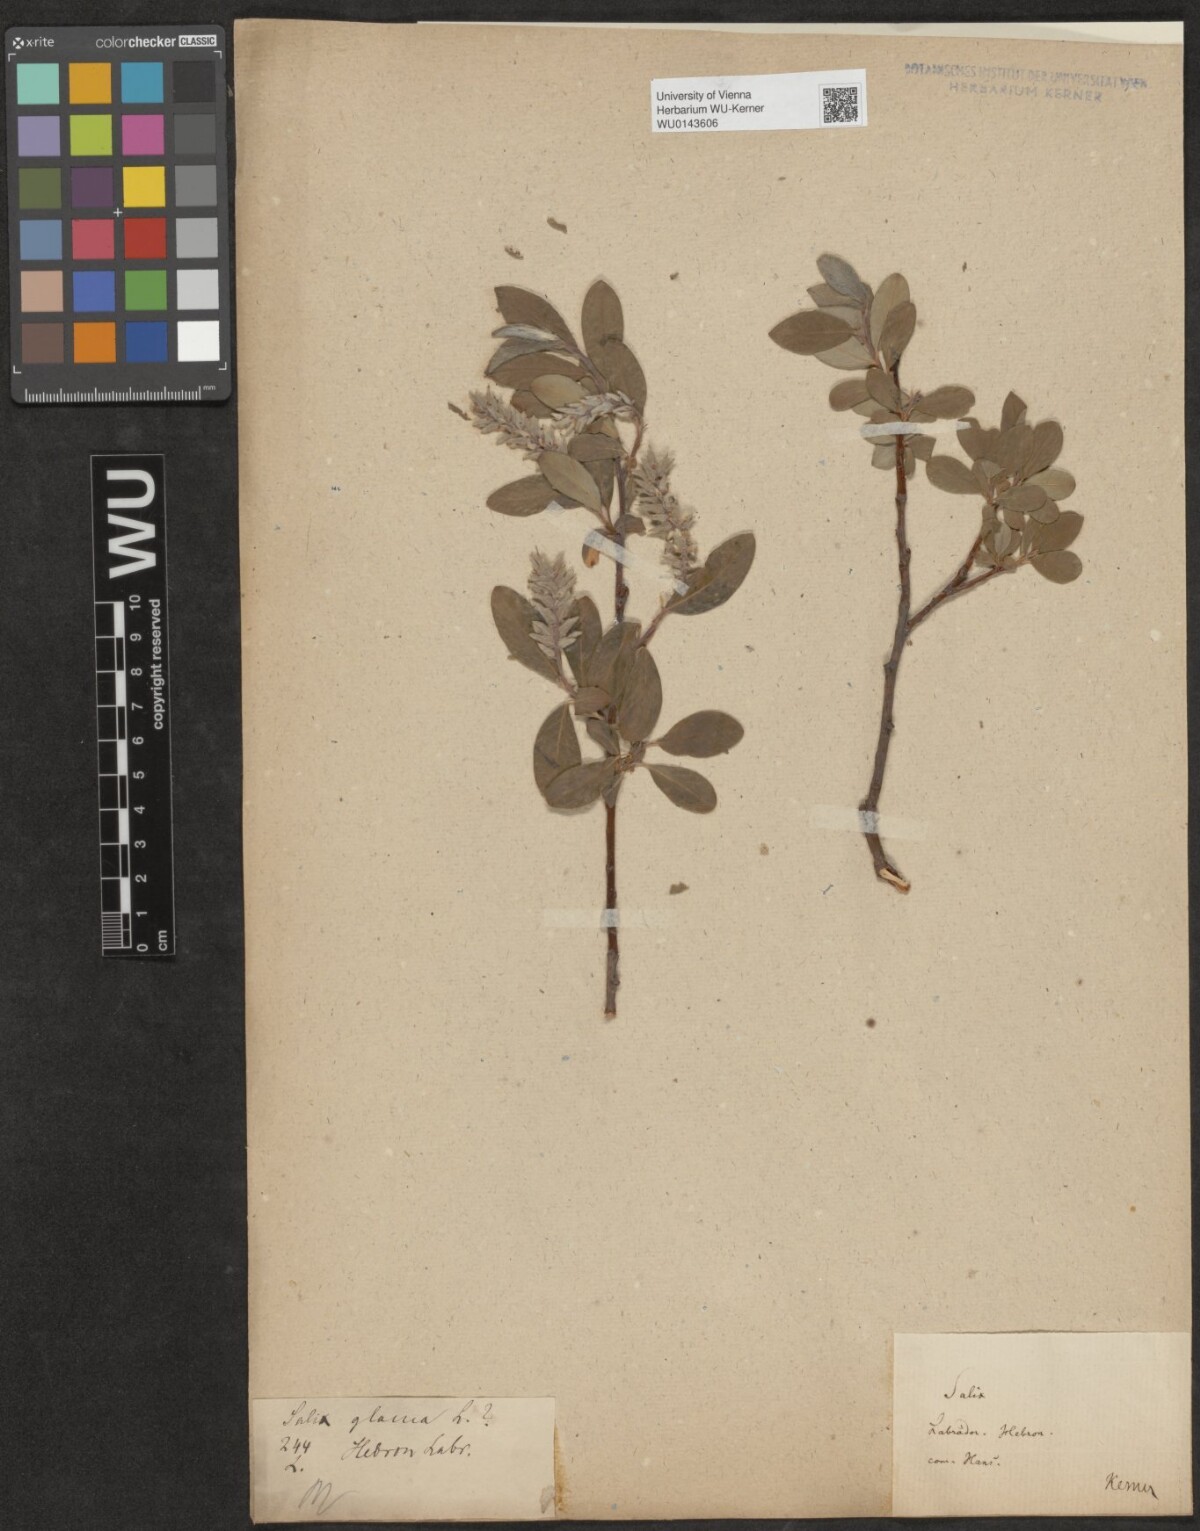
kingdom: Plantae
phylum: Tracheophyta
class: Magnoliopsida
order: Malpighiales
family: Salicaceae
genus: Salix
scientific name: Salix
